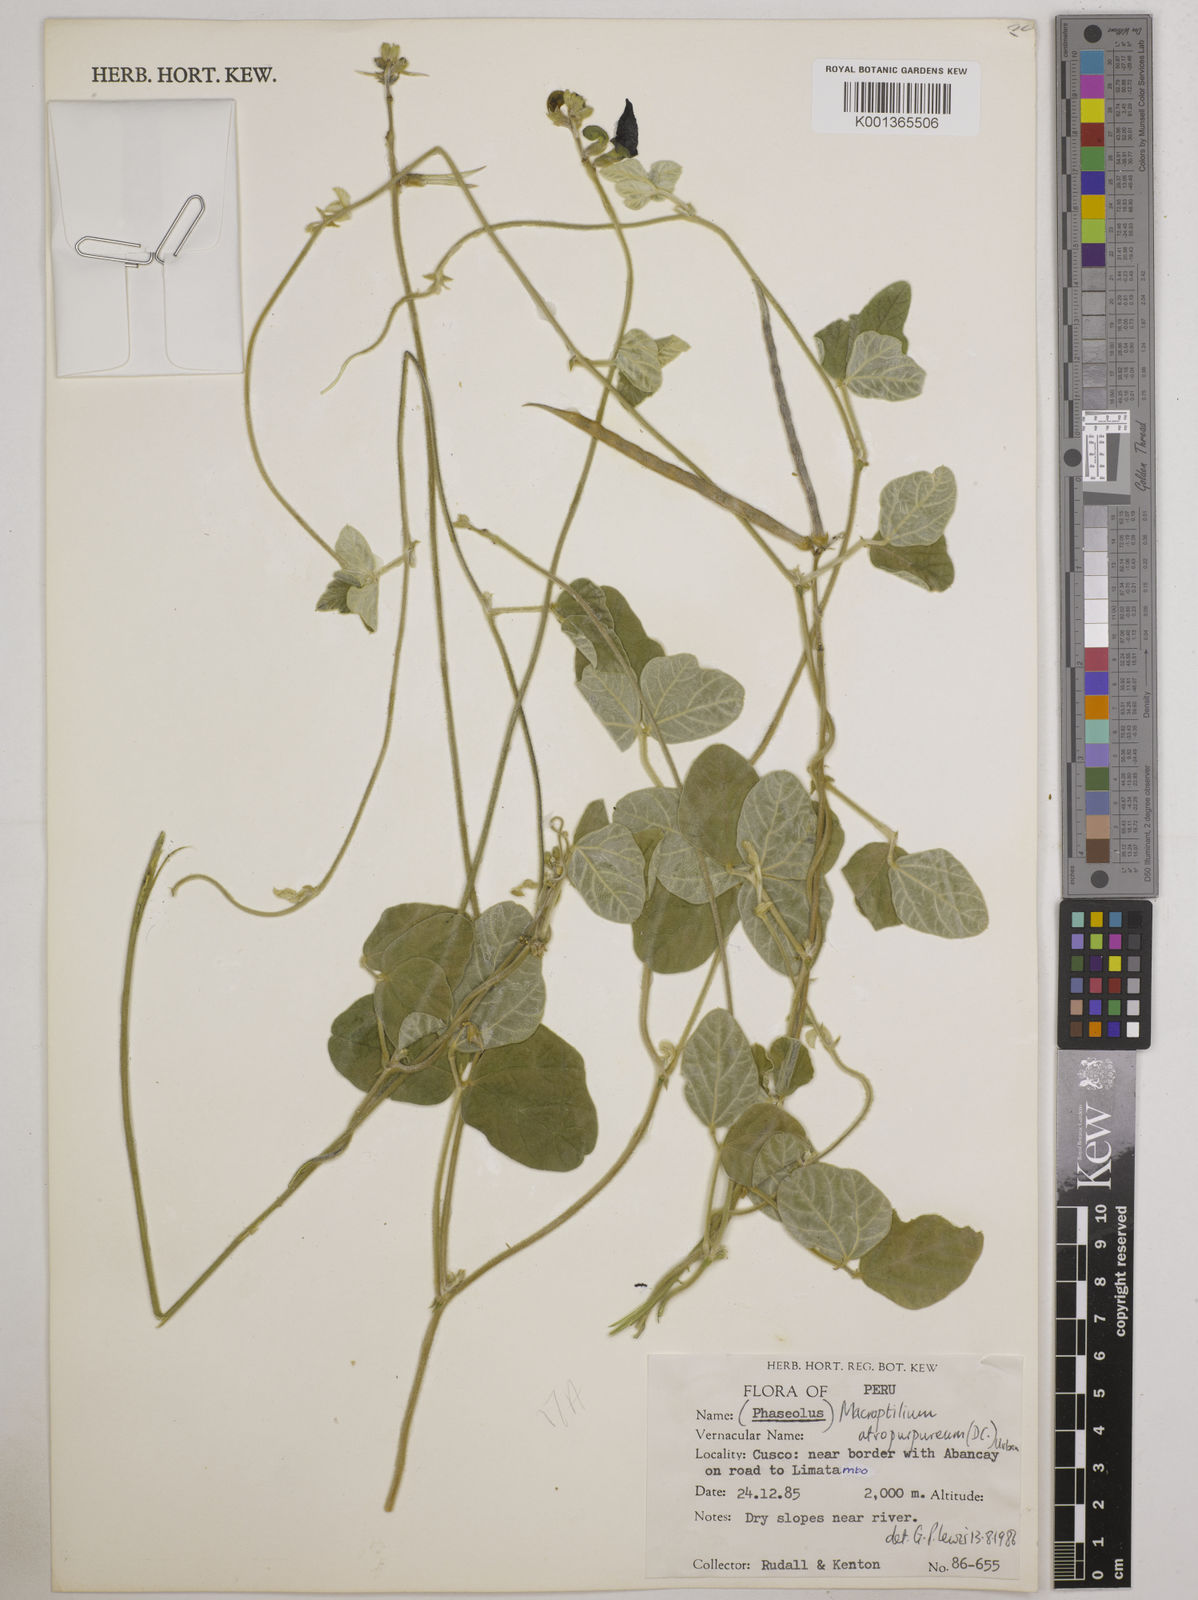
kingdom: Plantae
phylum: Tracheophyta
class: Magnoliopsida
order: Fabales
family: Fabaceae
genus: Macroptilium
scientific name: Macroptilium atropurpureum
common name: Purple bushbean
